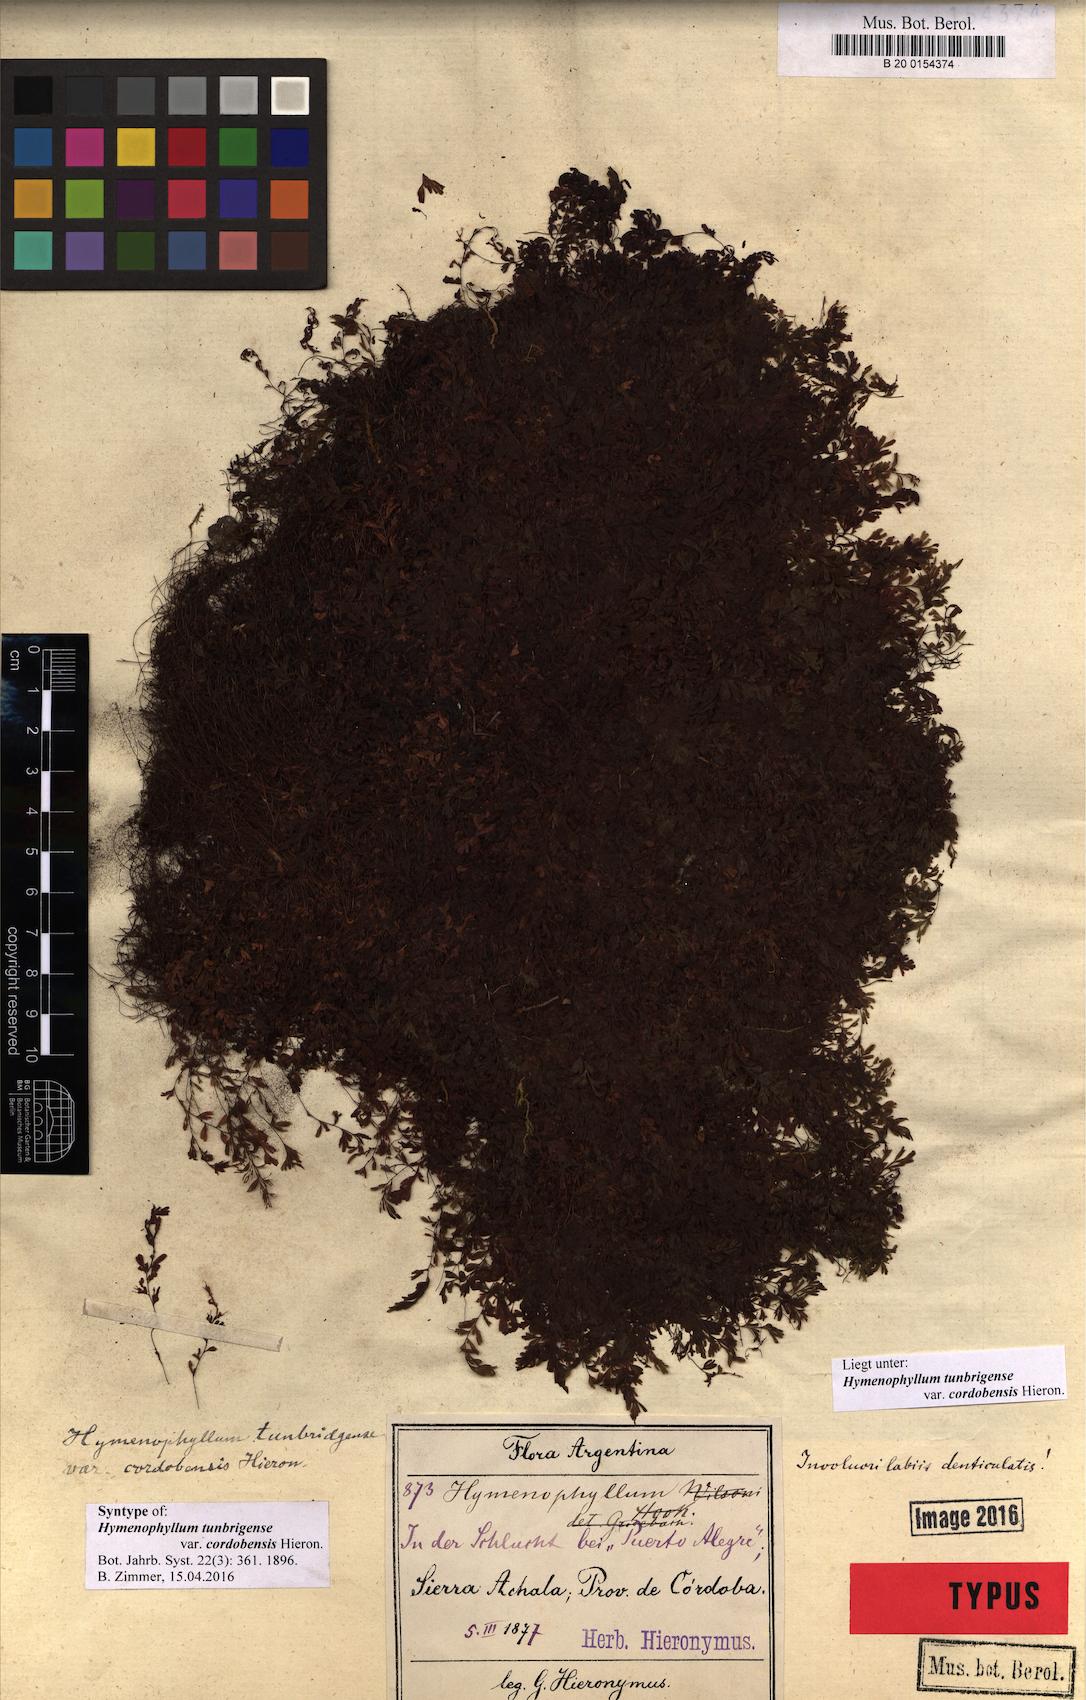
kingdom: Plantae
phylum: Tracheophyta
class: Polypodiopsida
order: Hymenophyllales
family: Hymenophyllaceae
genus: Hymenophyllum
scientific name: Hymenophyllum cordobense
